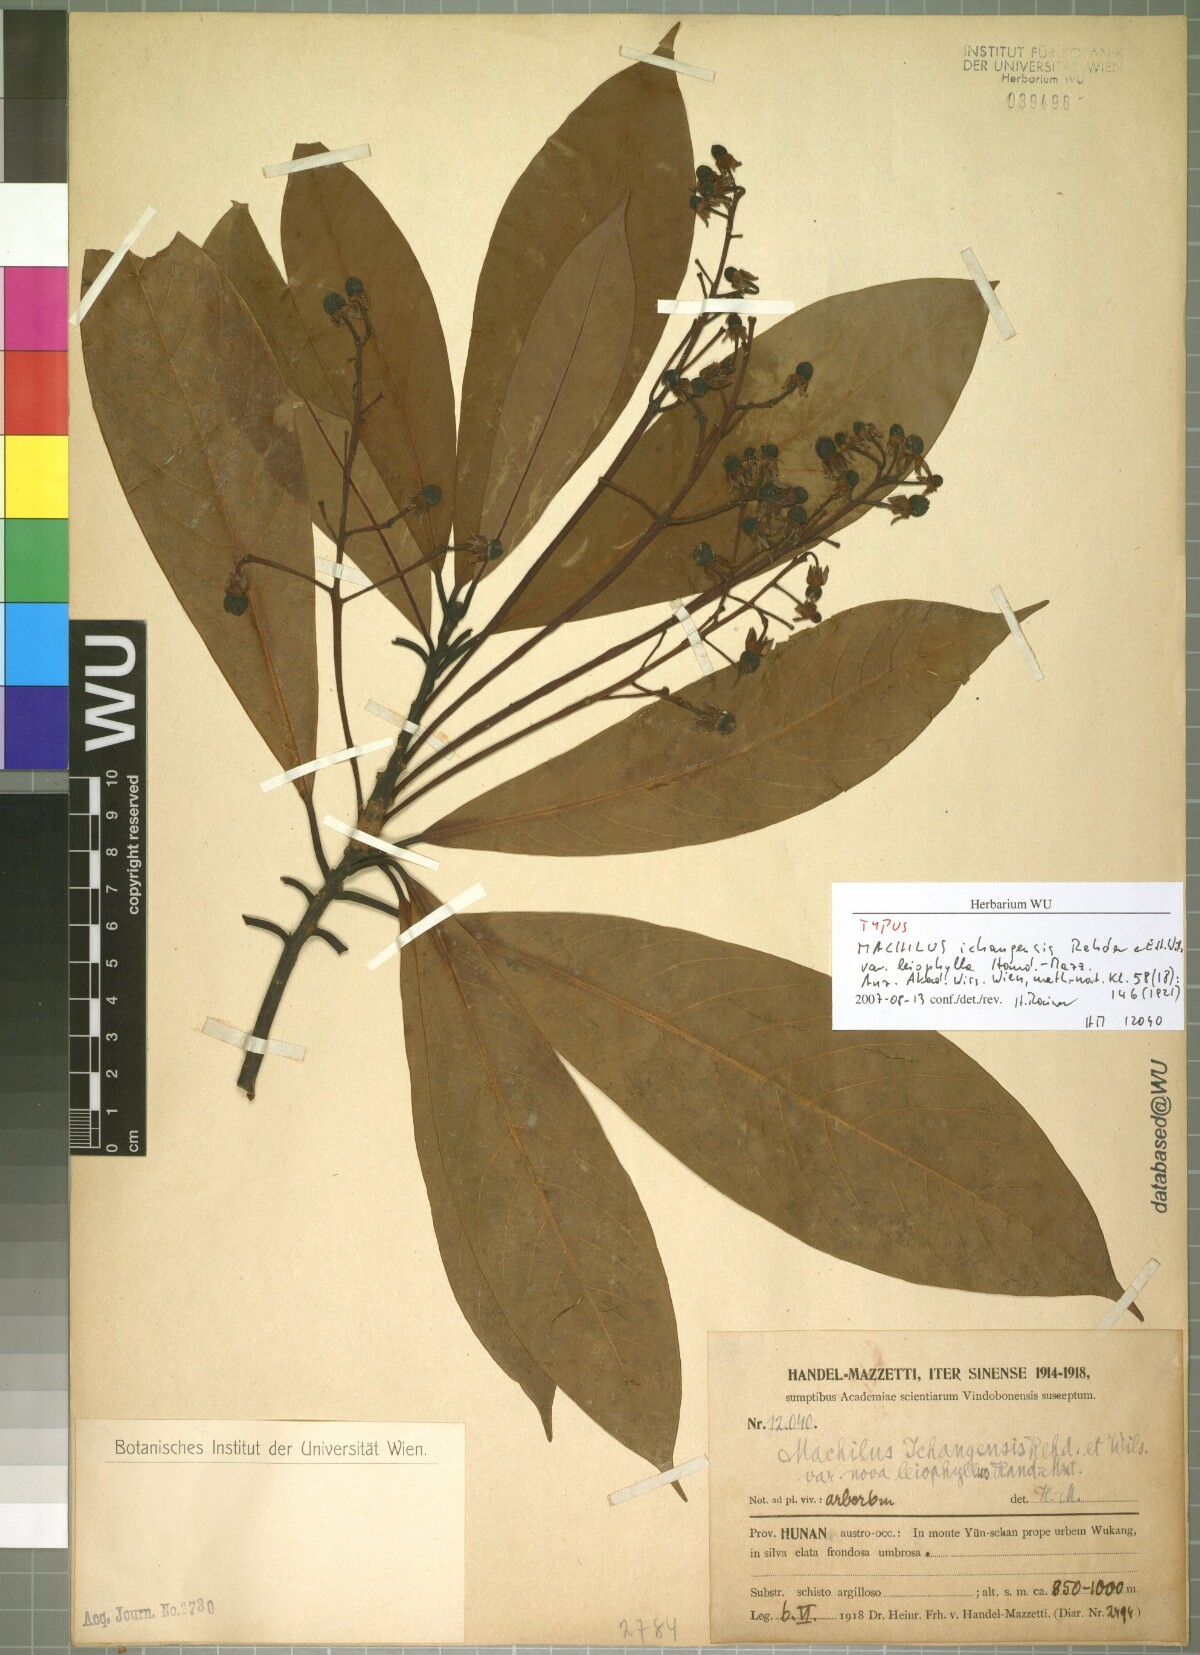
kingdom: Plantae
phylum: Tracheophyta
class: Magnoliopsida
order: Laurales
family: Lauraceae
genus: Machilus
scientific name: Machilus ichangensis
